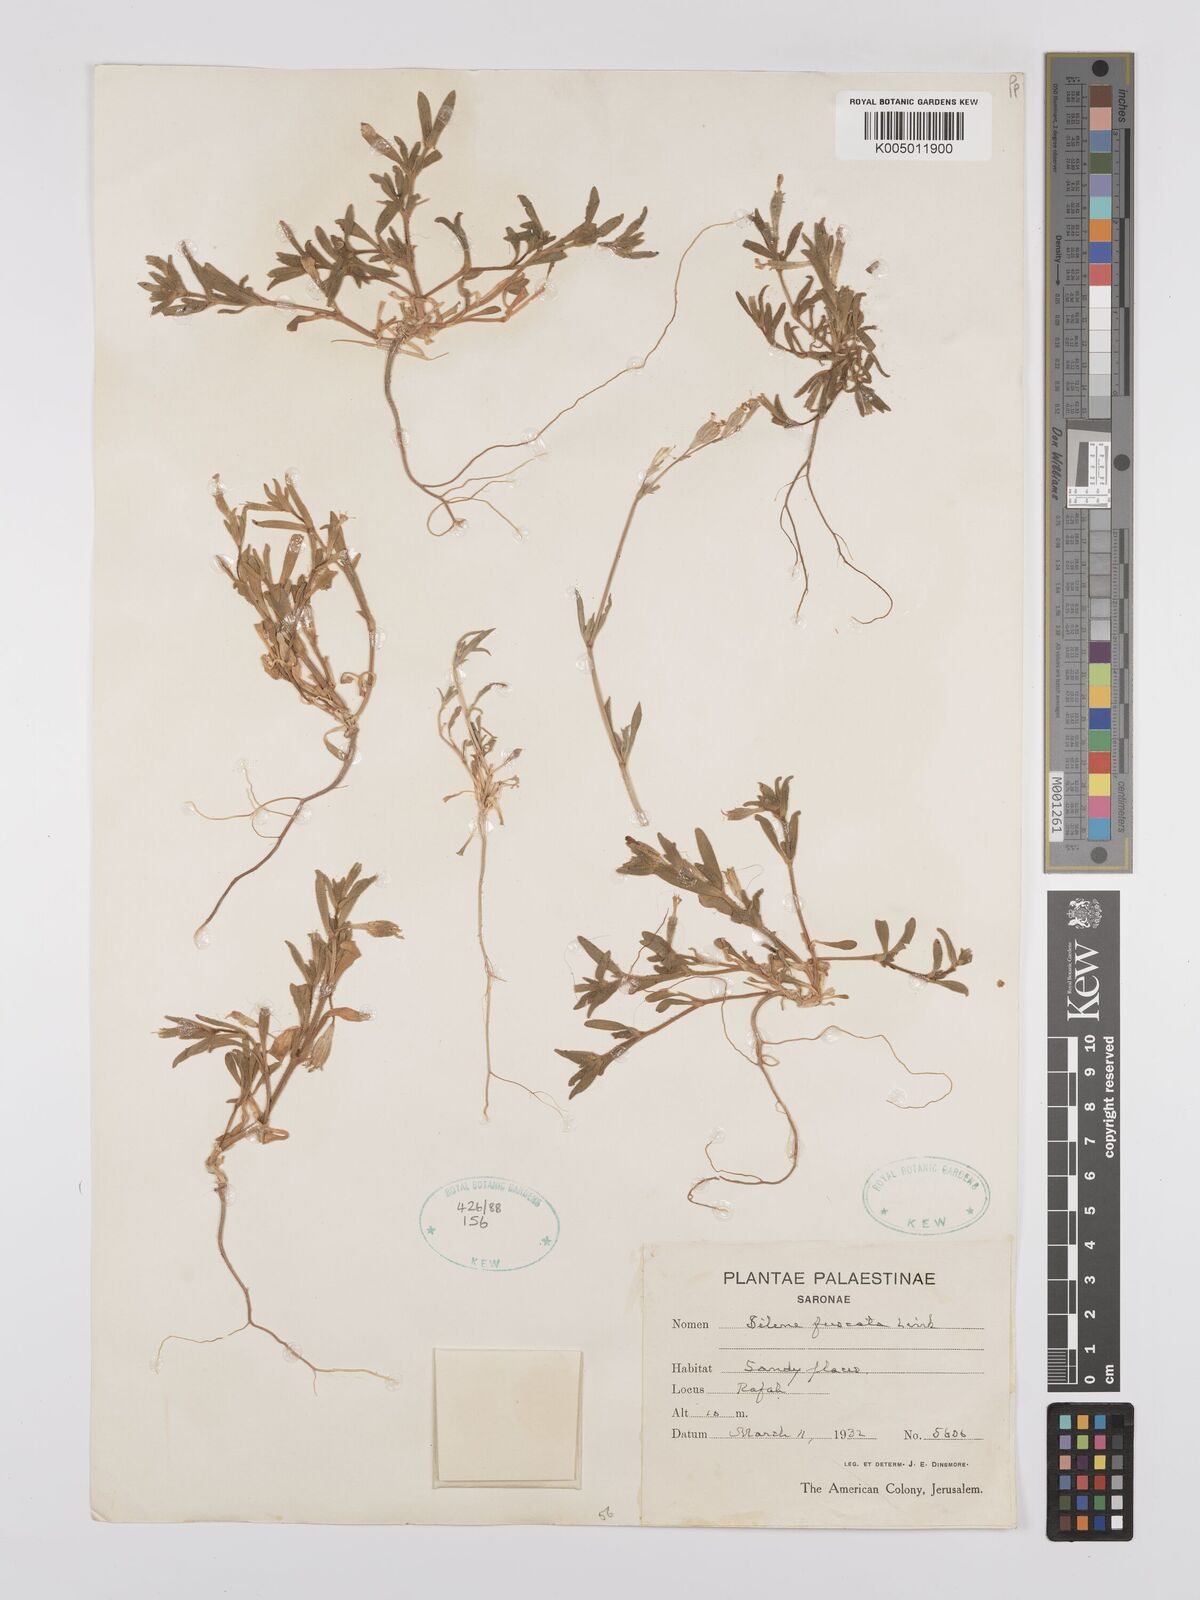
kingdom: Plantae
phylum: Tracheophyta
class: Magnoliopsida
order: Caryophyllales
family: Caryophyllaceae
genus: Silene
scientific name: Silene fuscata
